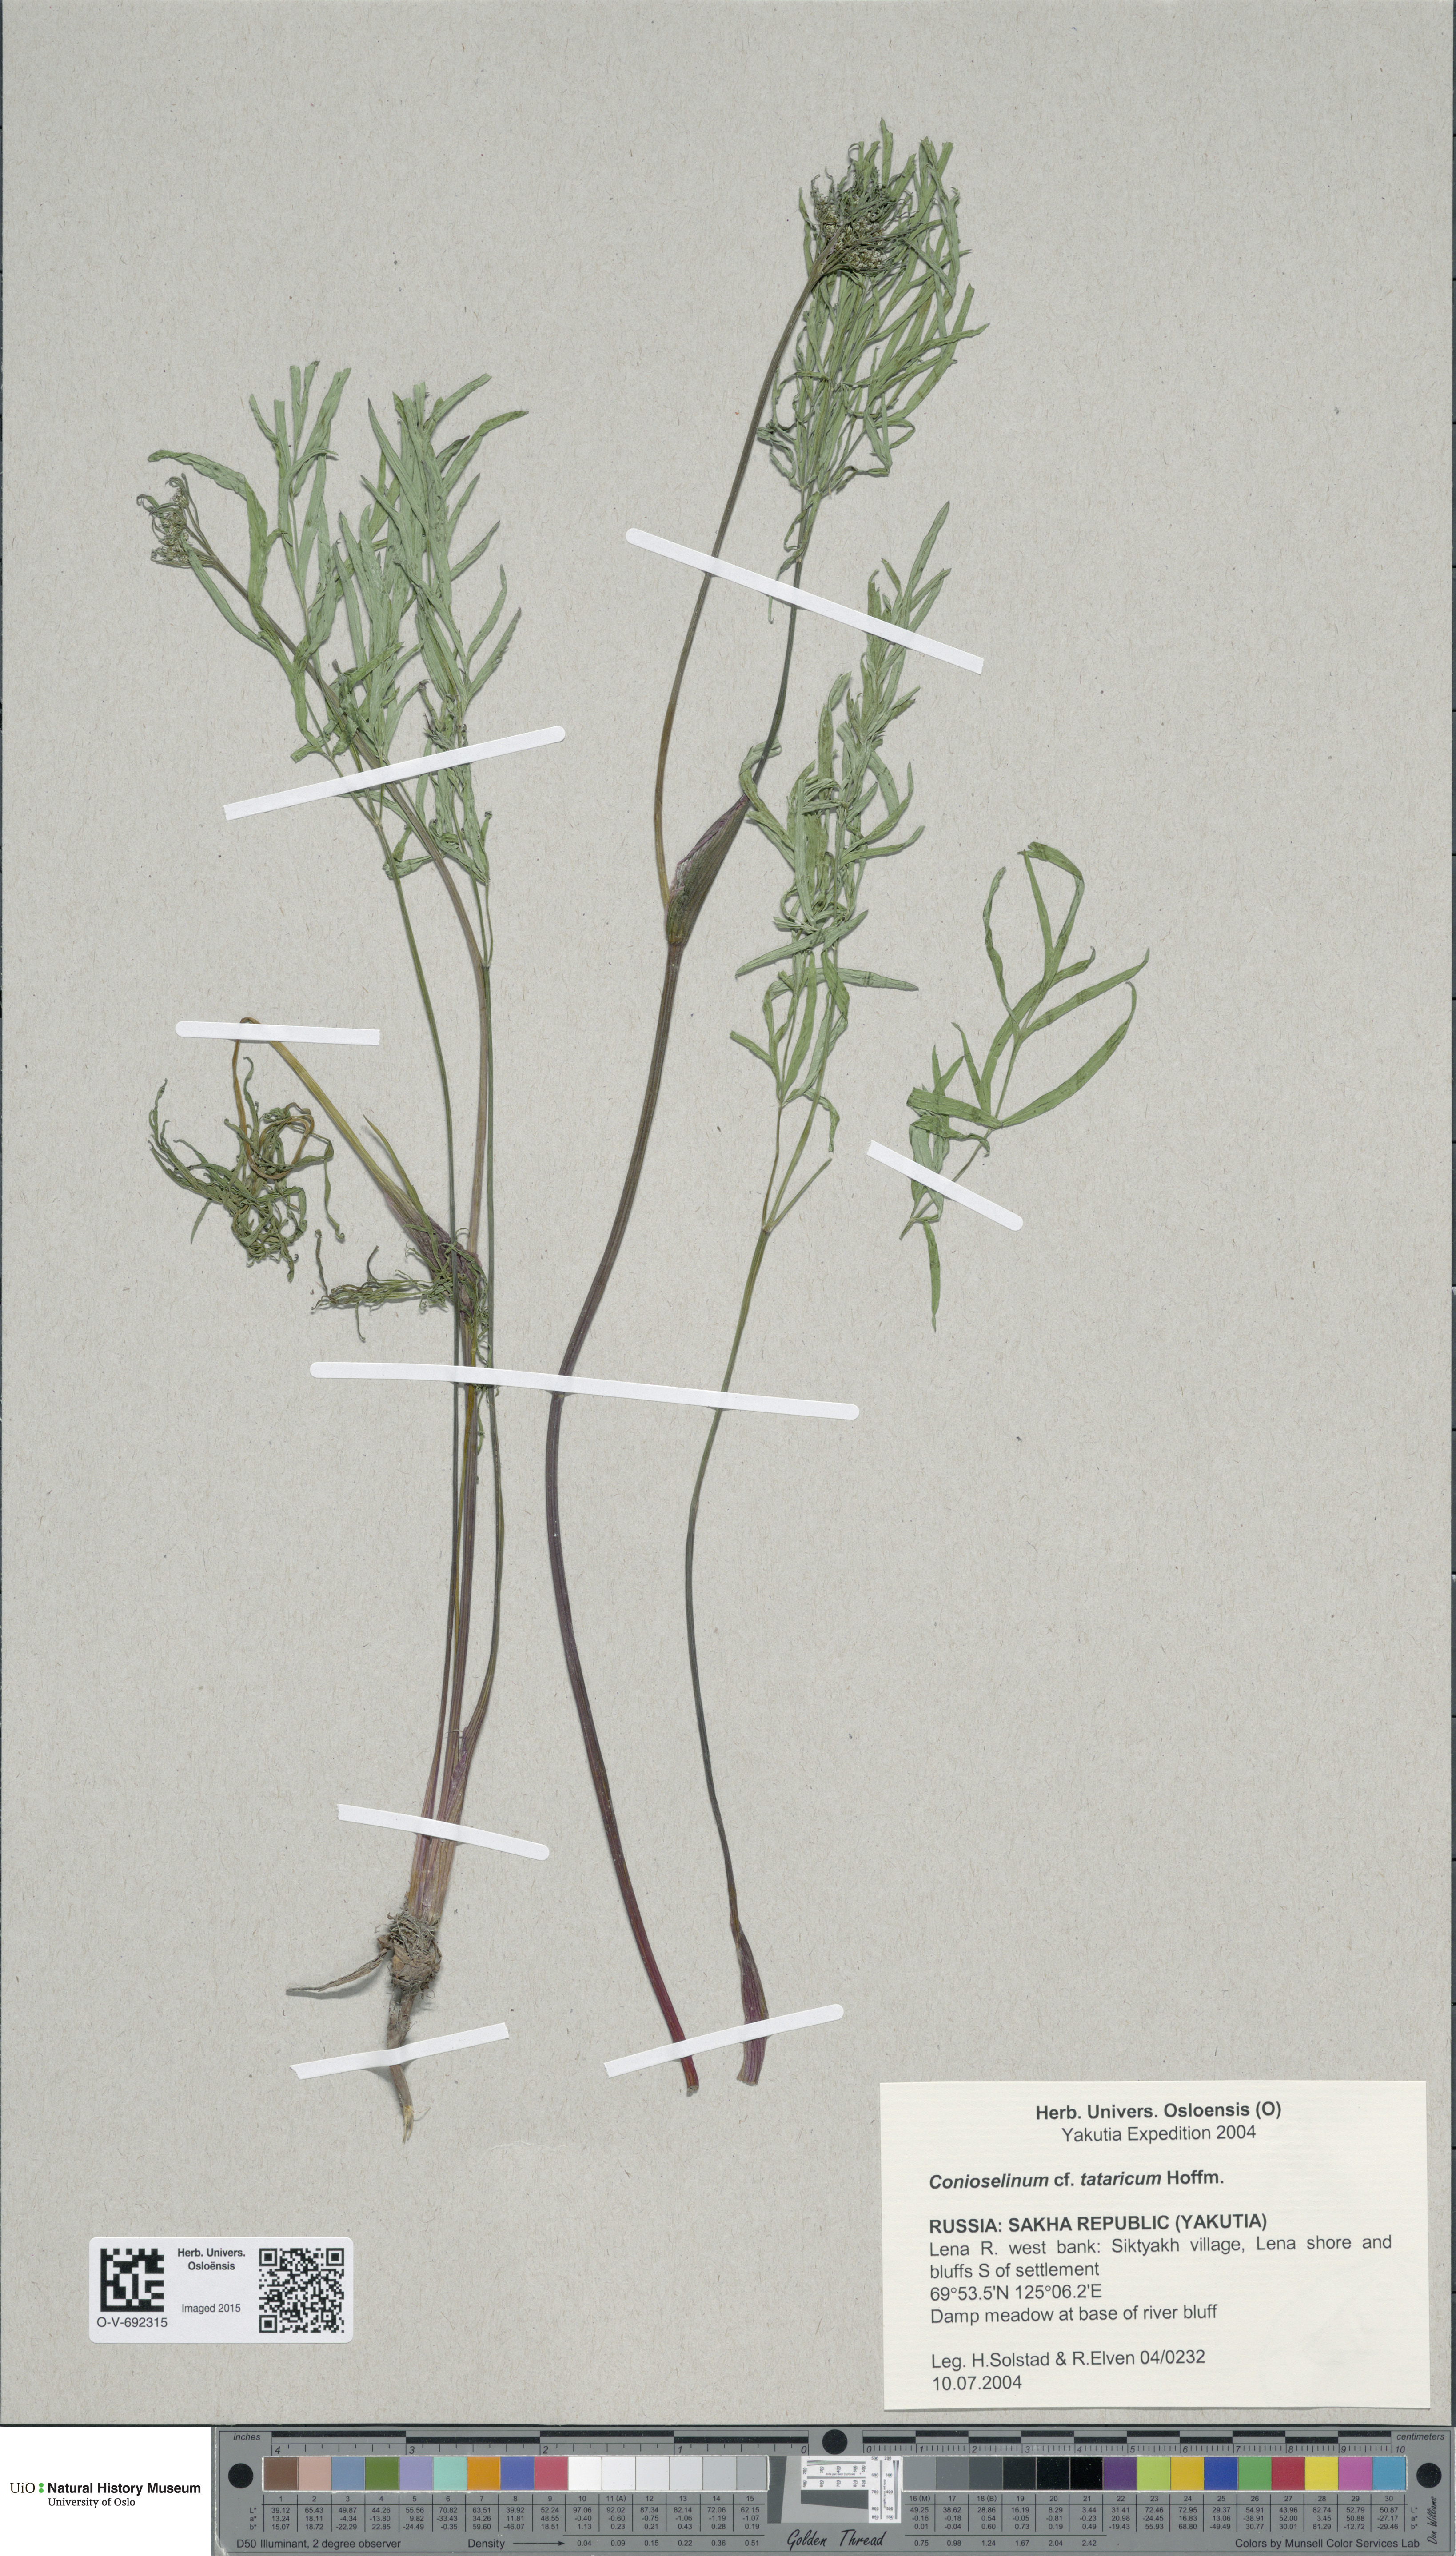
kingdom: Plantae
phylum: Tracheophyta
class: Magnoliopsida
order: Apiales
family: Apiaceae
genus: Seseli
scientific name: Seseli condensatum
